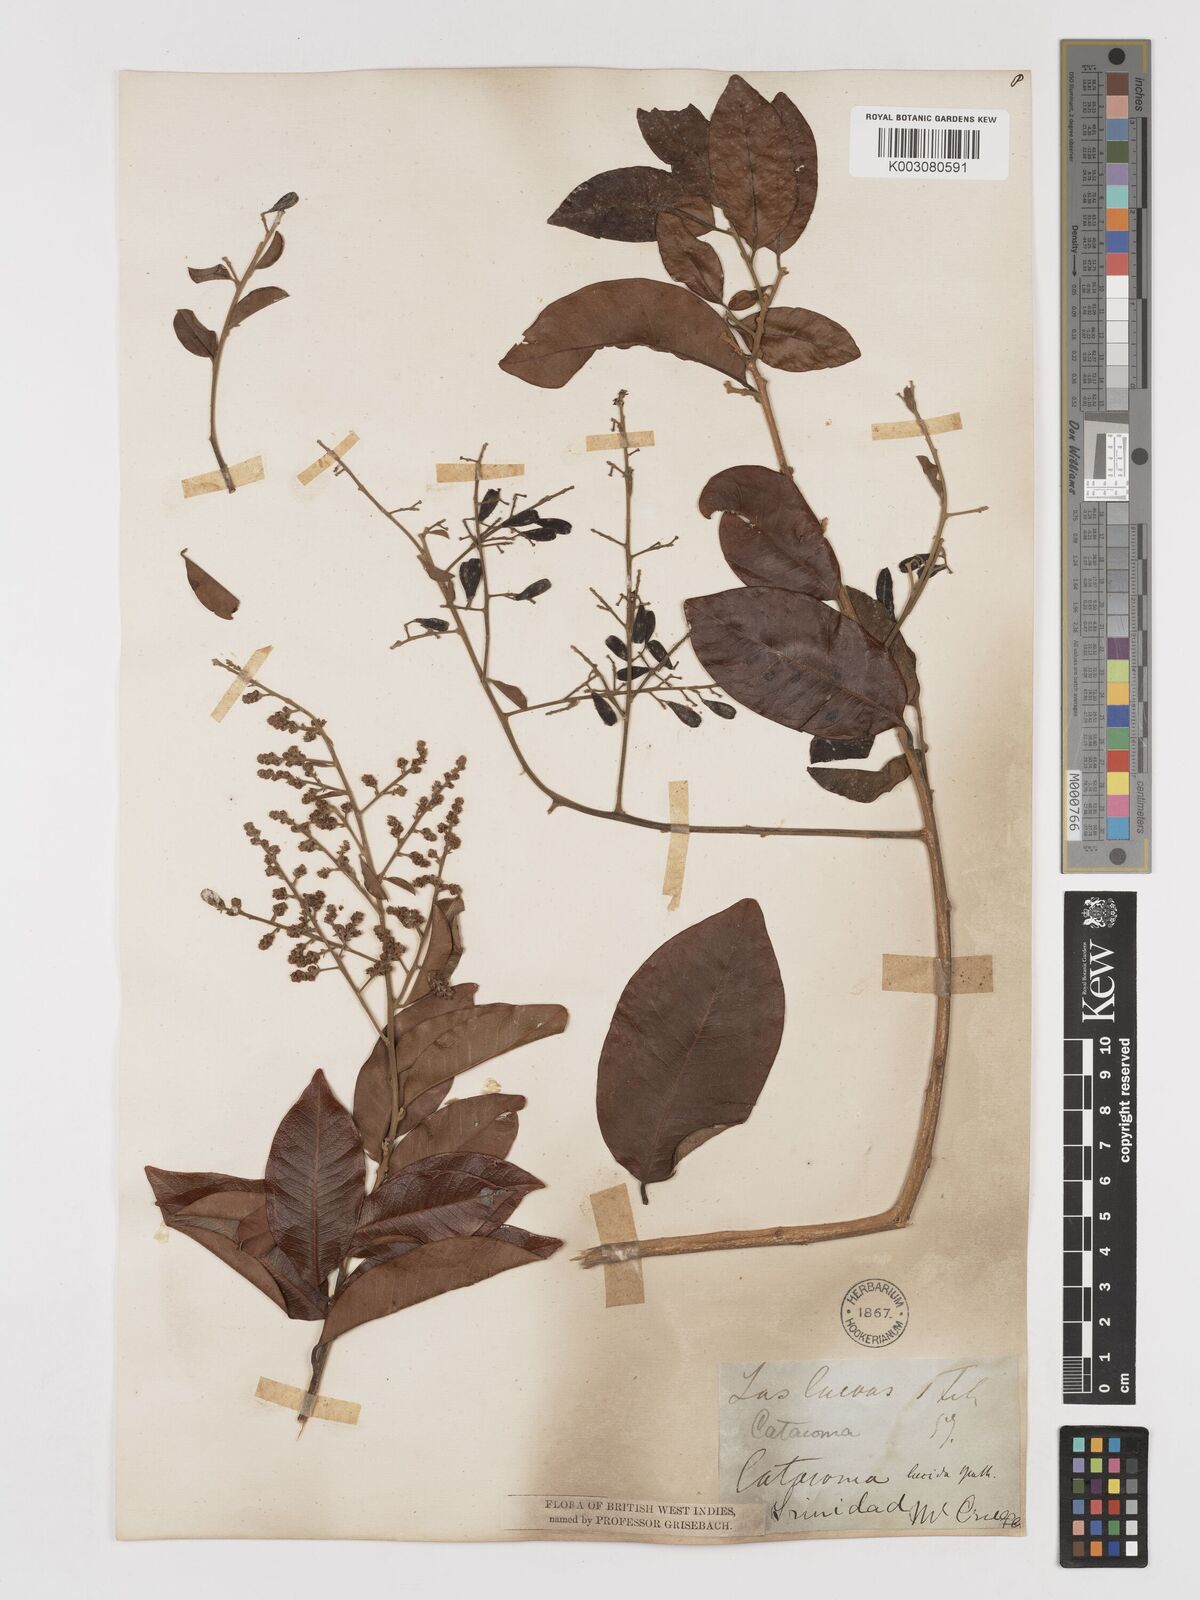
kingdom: Plantae
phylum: Tracheophyta
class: Magnoliopsida
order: Fabales
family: Polygalaceae
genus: Bredemeyera
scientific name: Bredemeyera lucida
